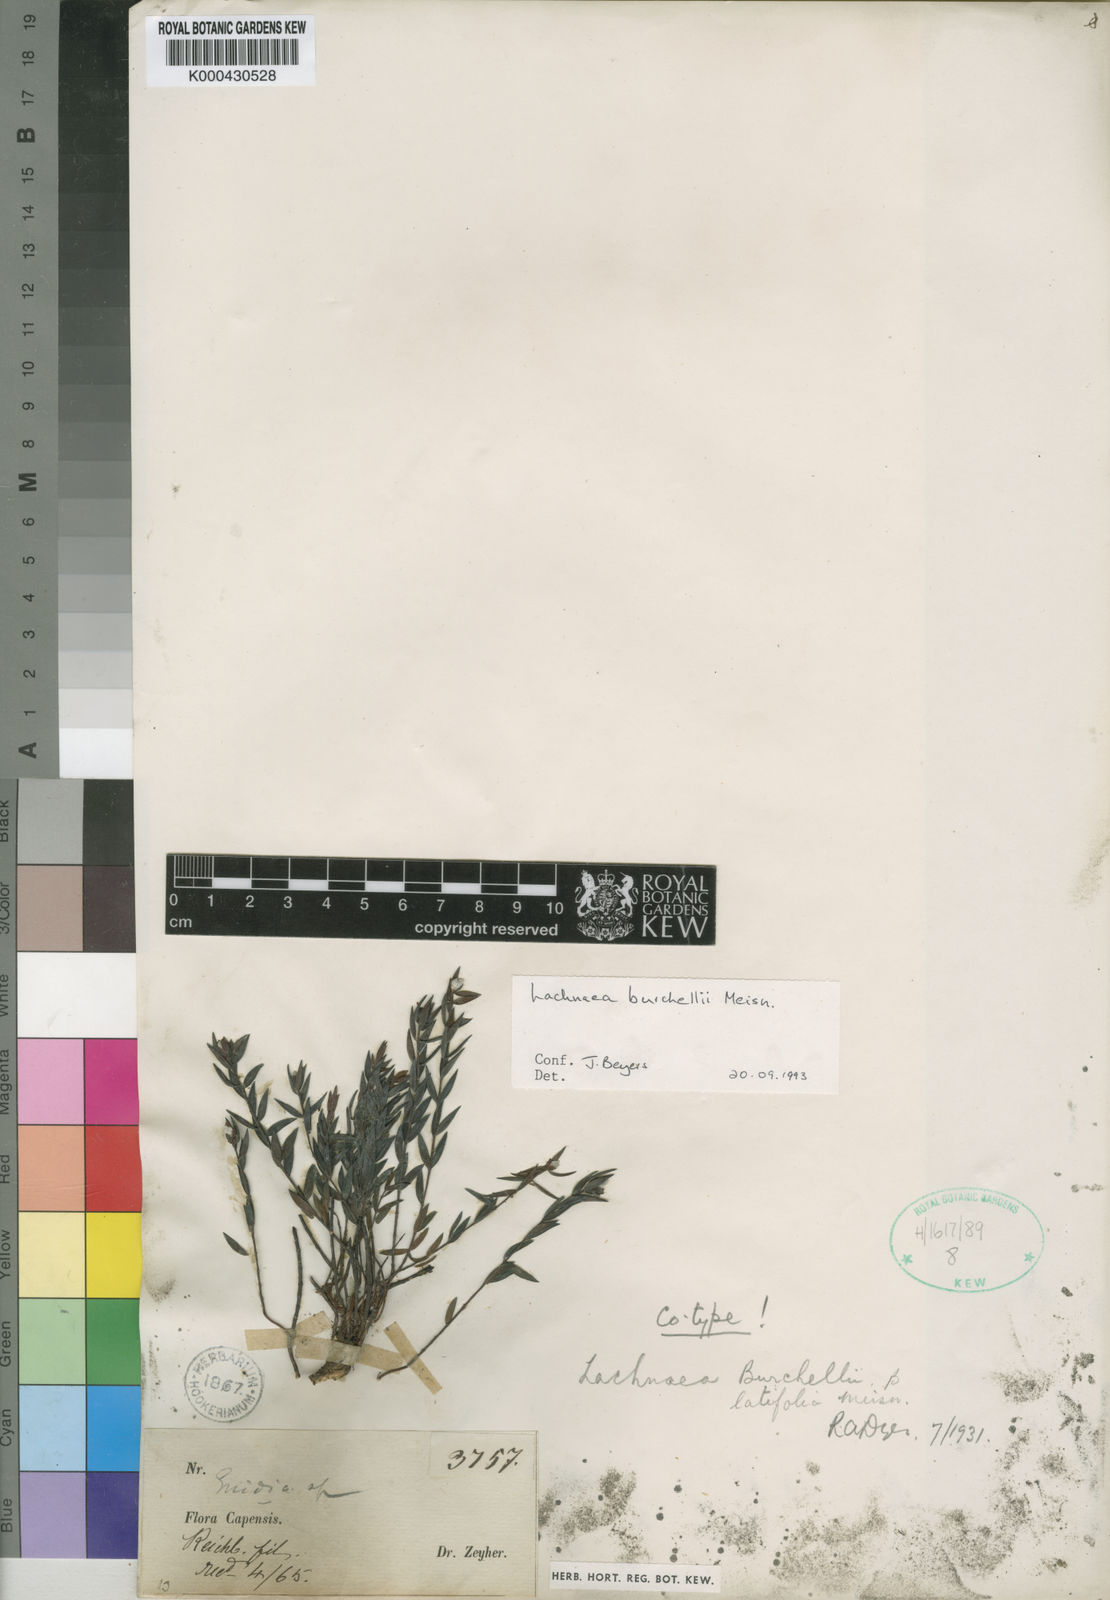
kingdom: Plantae
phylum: Tracheophyta
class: Magnoliopsida
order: Malvales
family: Thymelaeaceae
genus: Lachnaea
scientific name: Lachnaea burchellii
